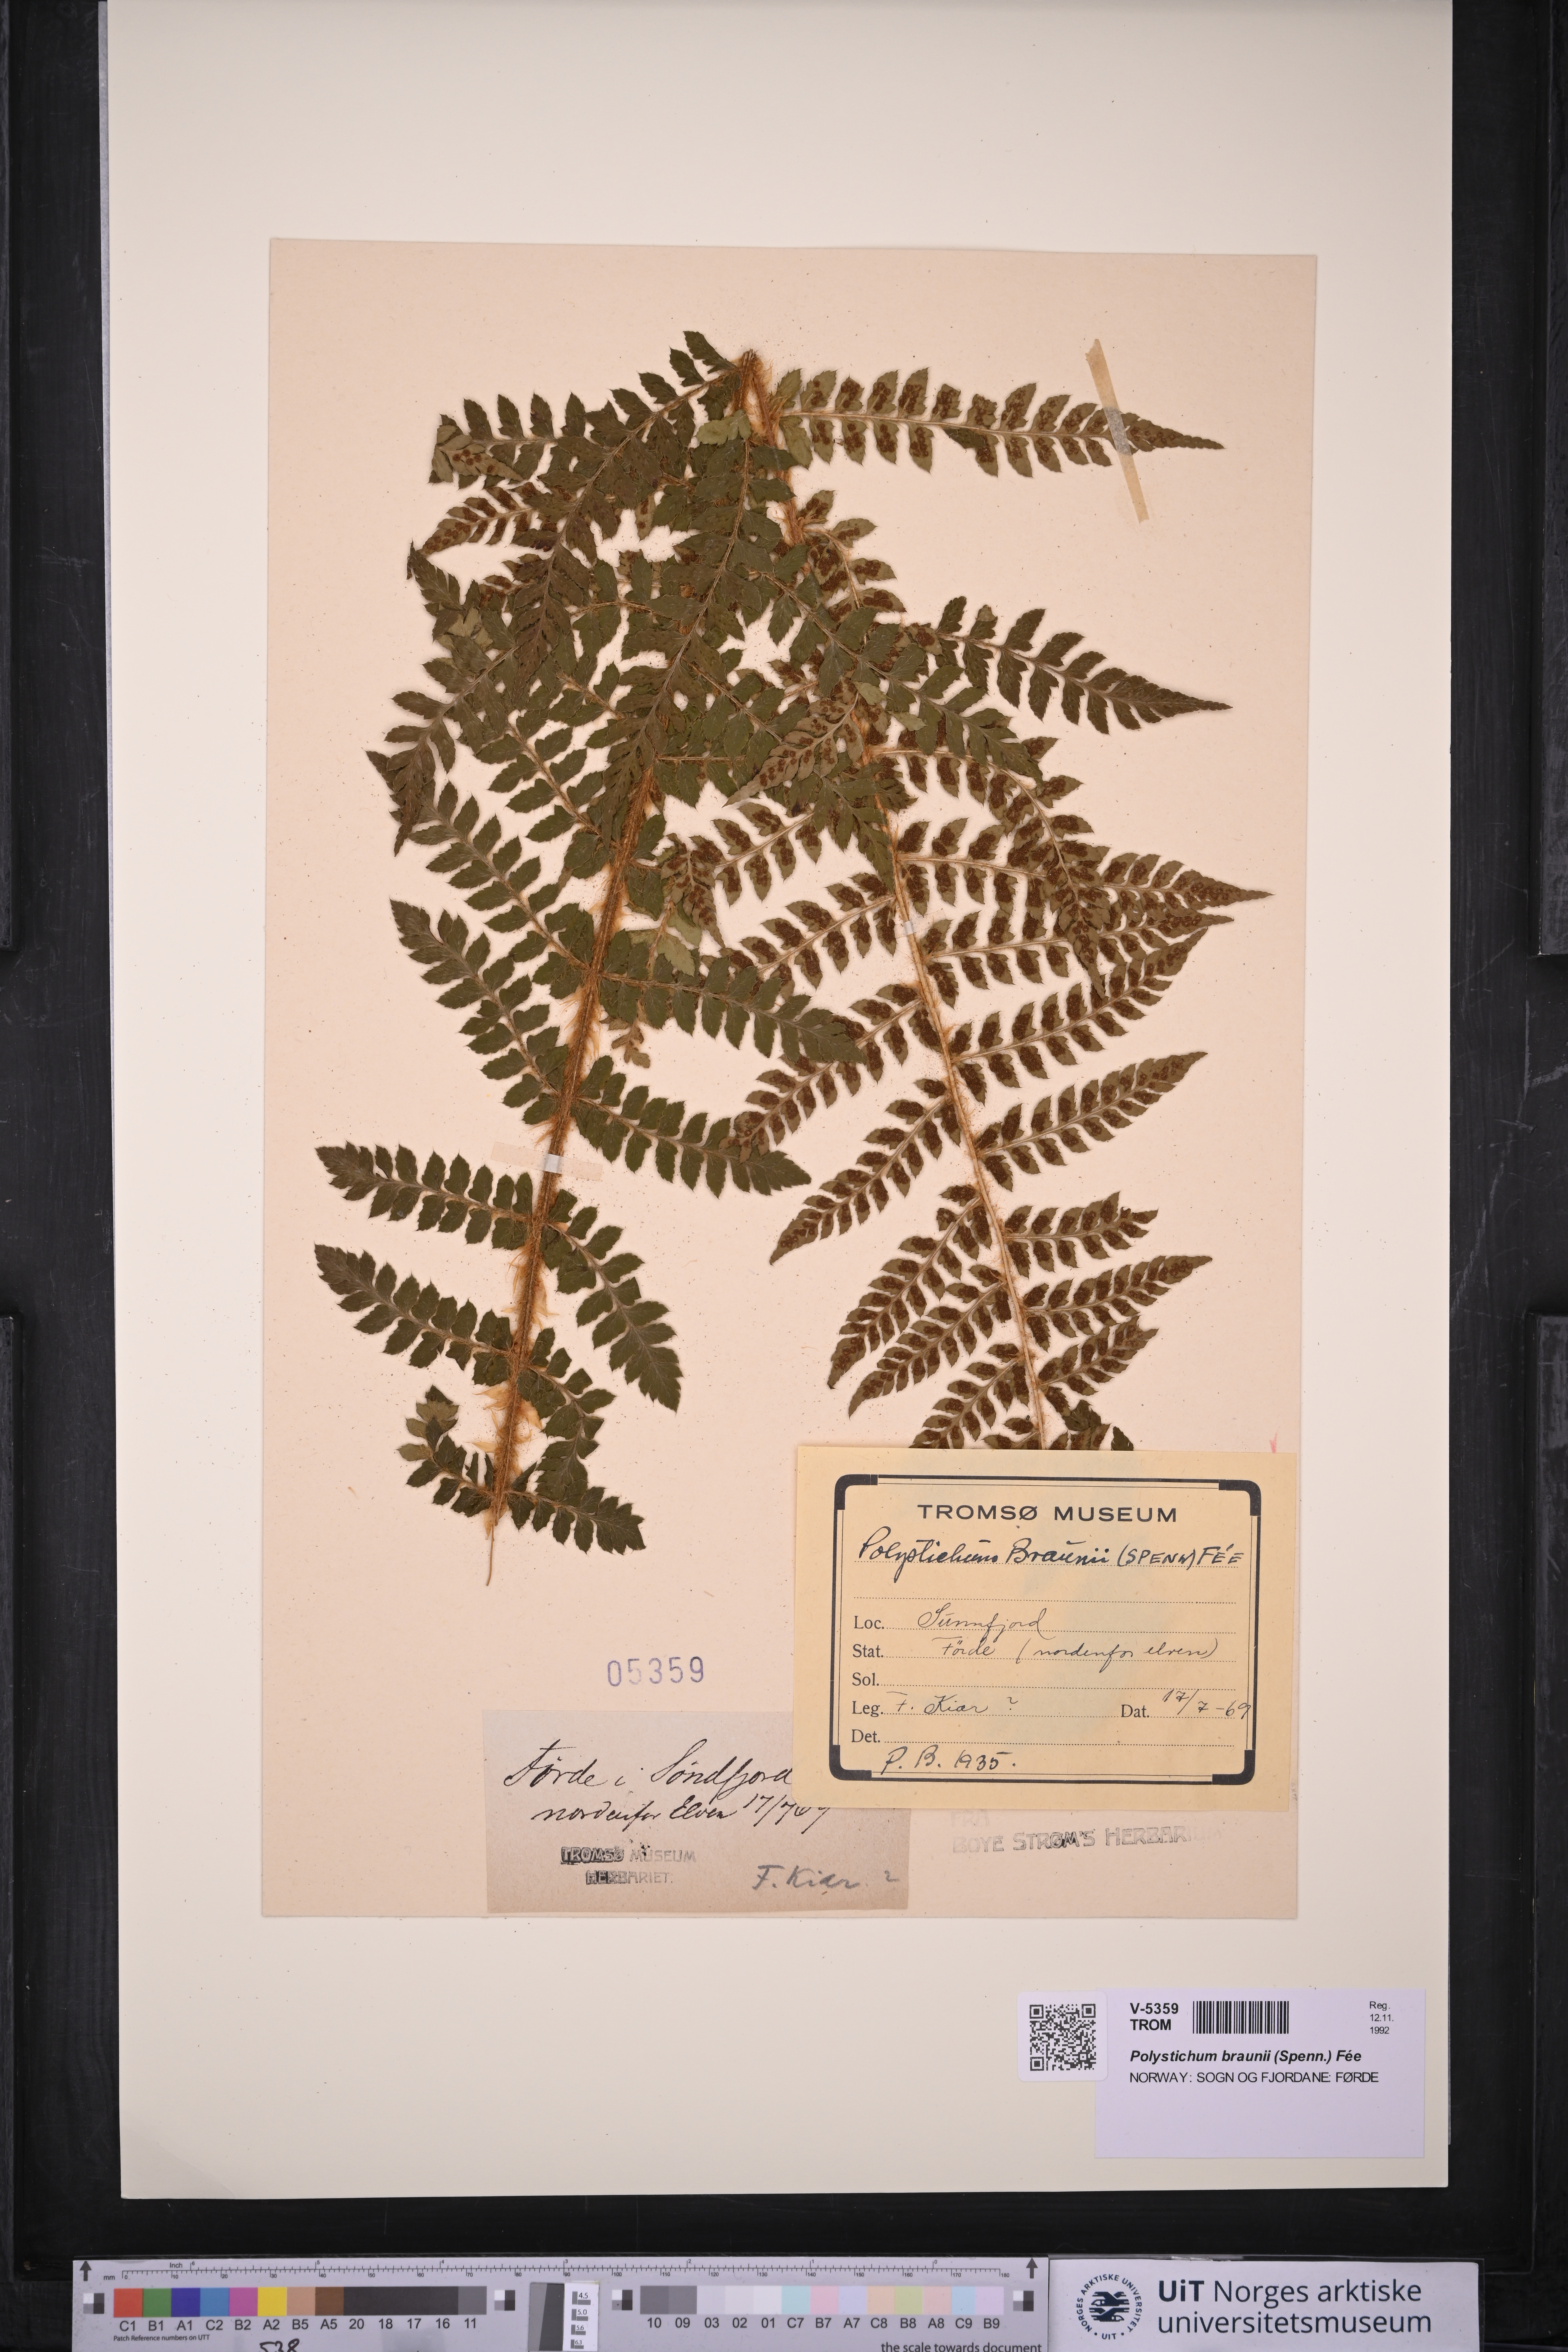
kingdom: Plantae
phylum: Tracheophyta
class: Polypodiopsida
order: Polypodiales
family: Dryopteridaceae
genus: Polystichum
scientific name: Polystichum braunii
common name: Braun's holly fern
